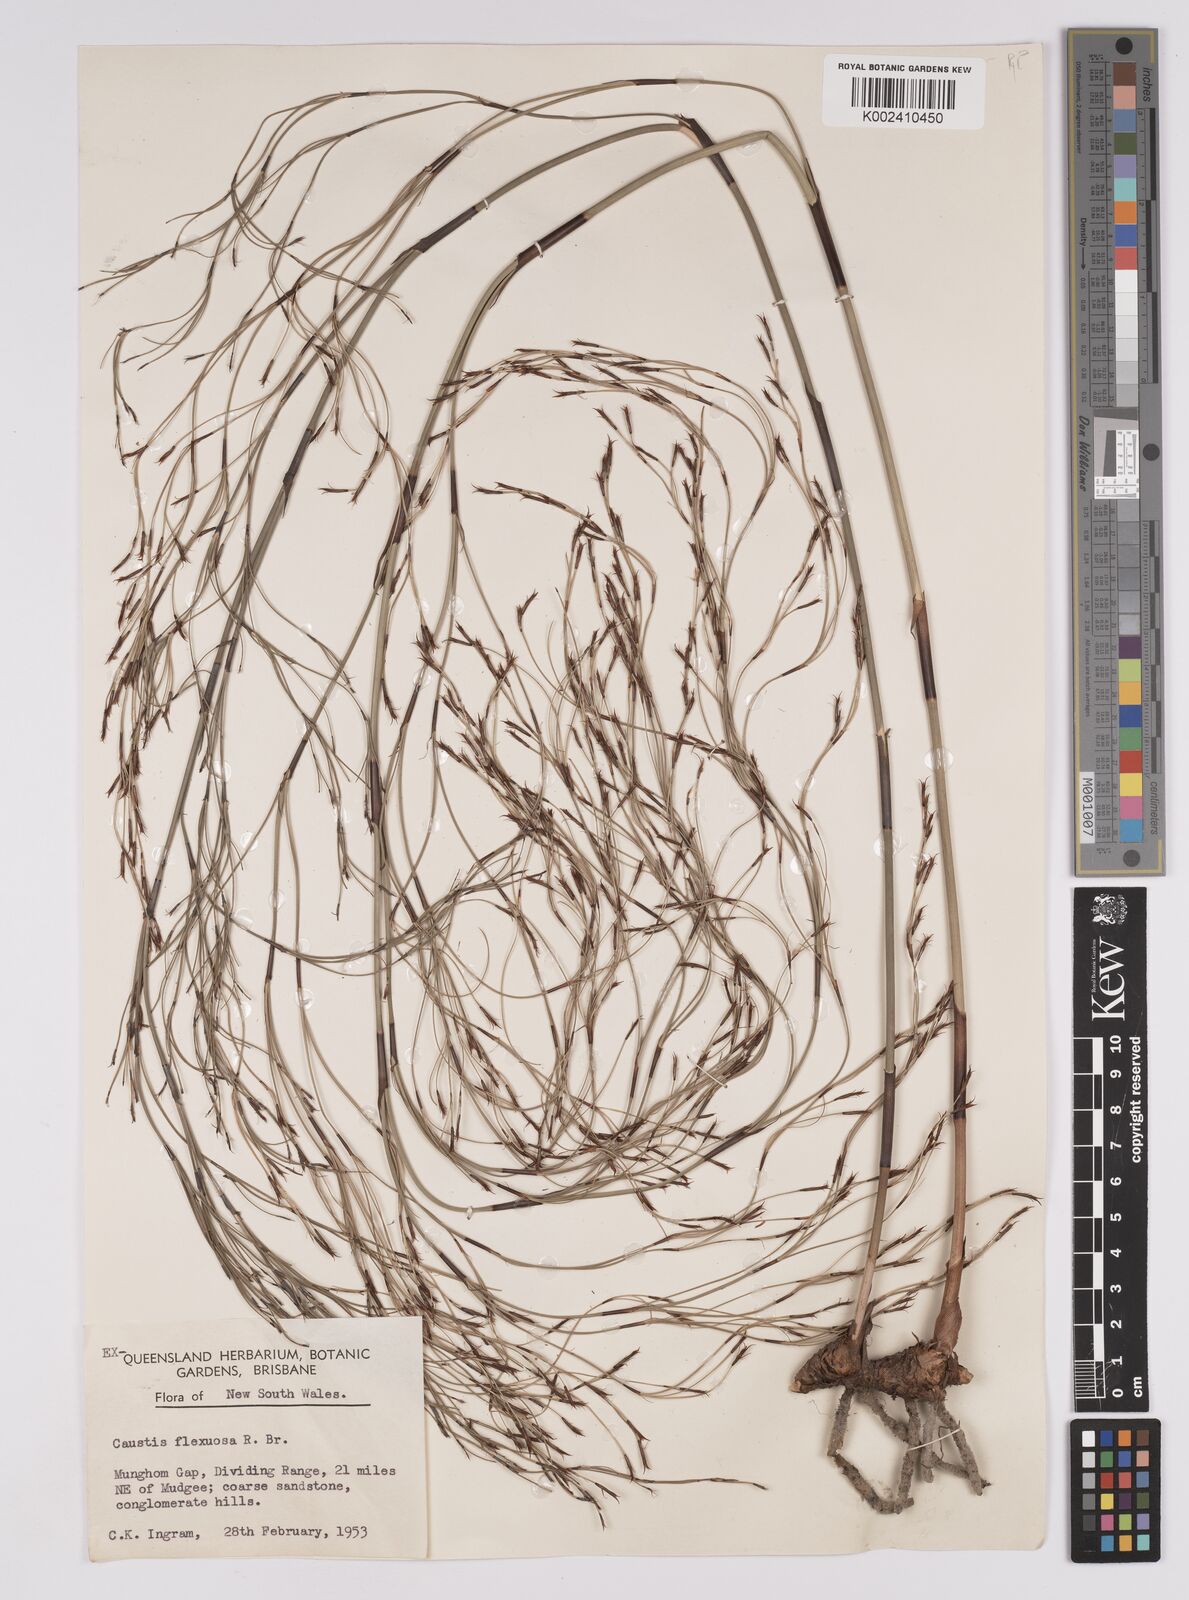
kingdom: Plantae
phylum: Tracheophyta
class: Liliopsida
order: Poales
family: Cyperaceae
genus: Caustis
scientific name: Caustis flexuosa
